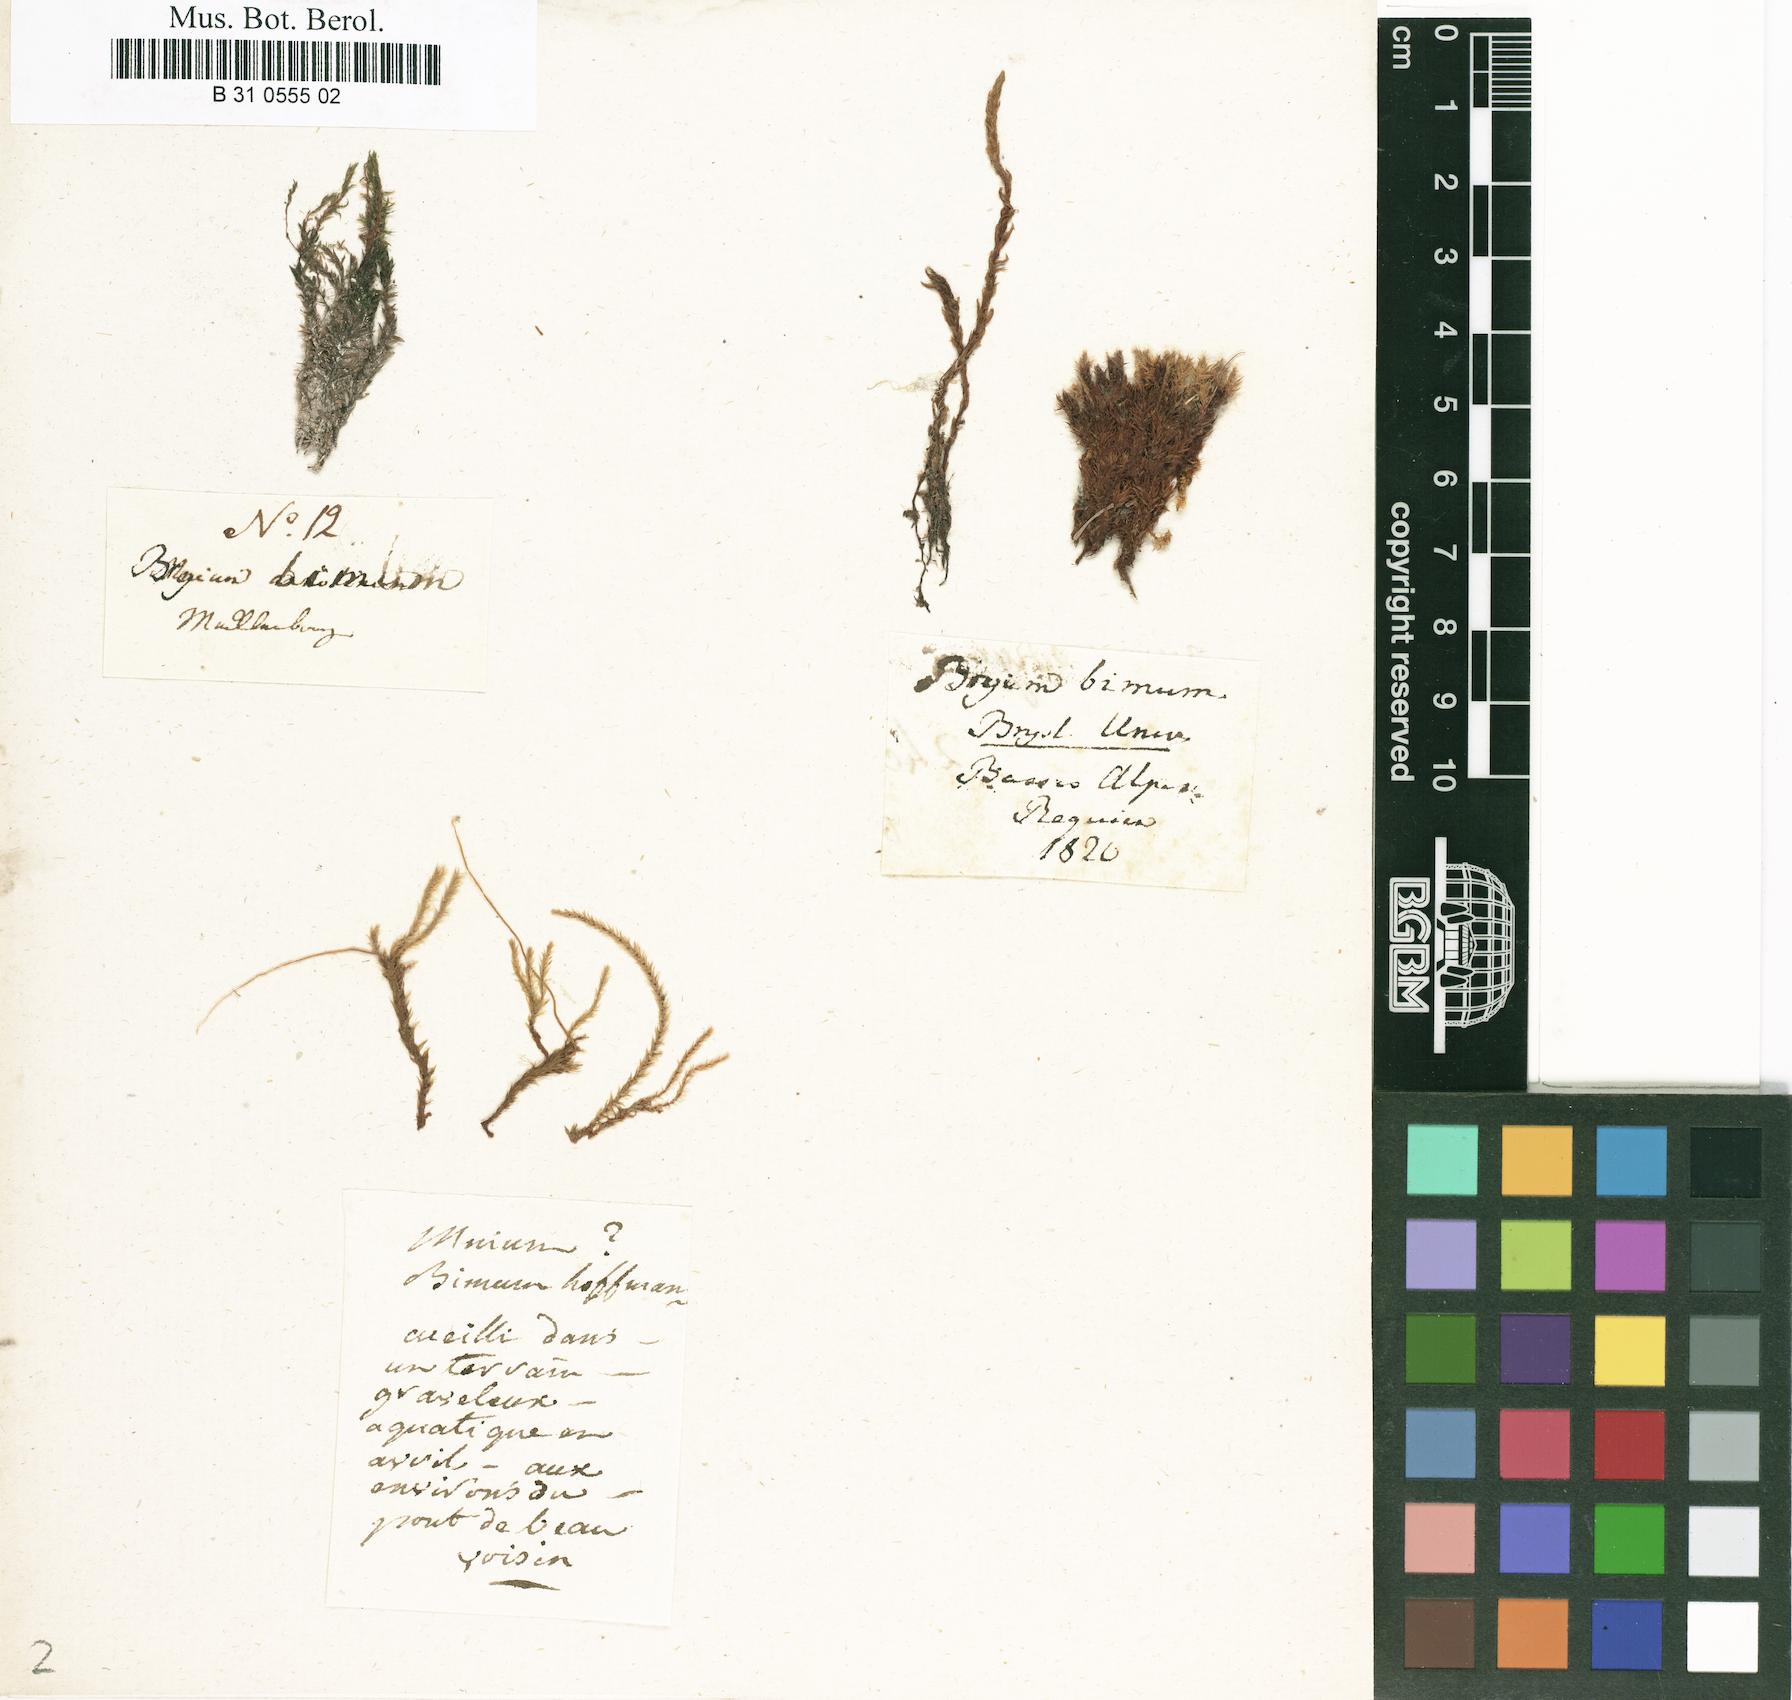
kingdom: Plantae
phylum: Bryophyta
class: Bryopsida
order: Bryales
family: Bryaceae
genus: Ptychostomum
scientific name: Ptychostomum bimum
